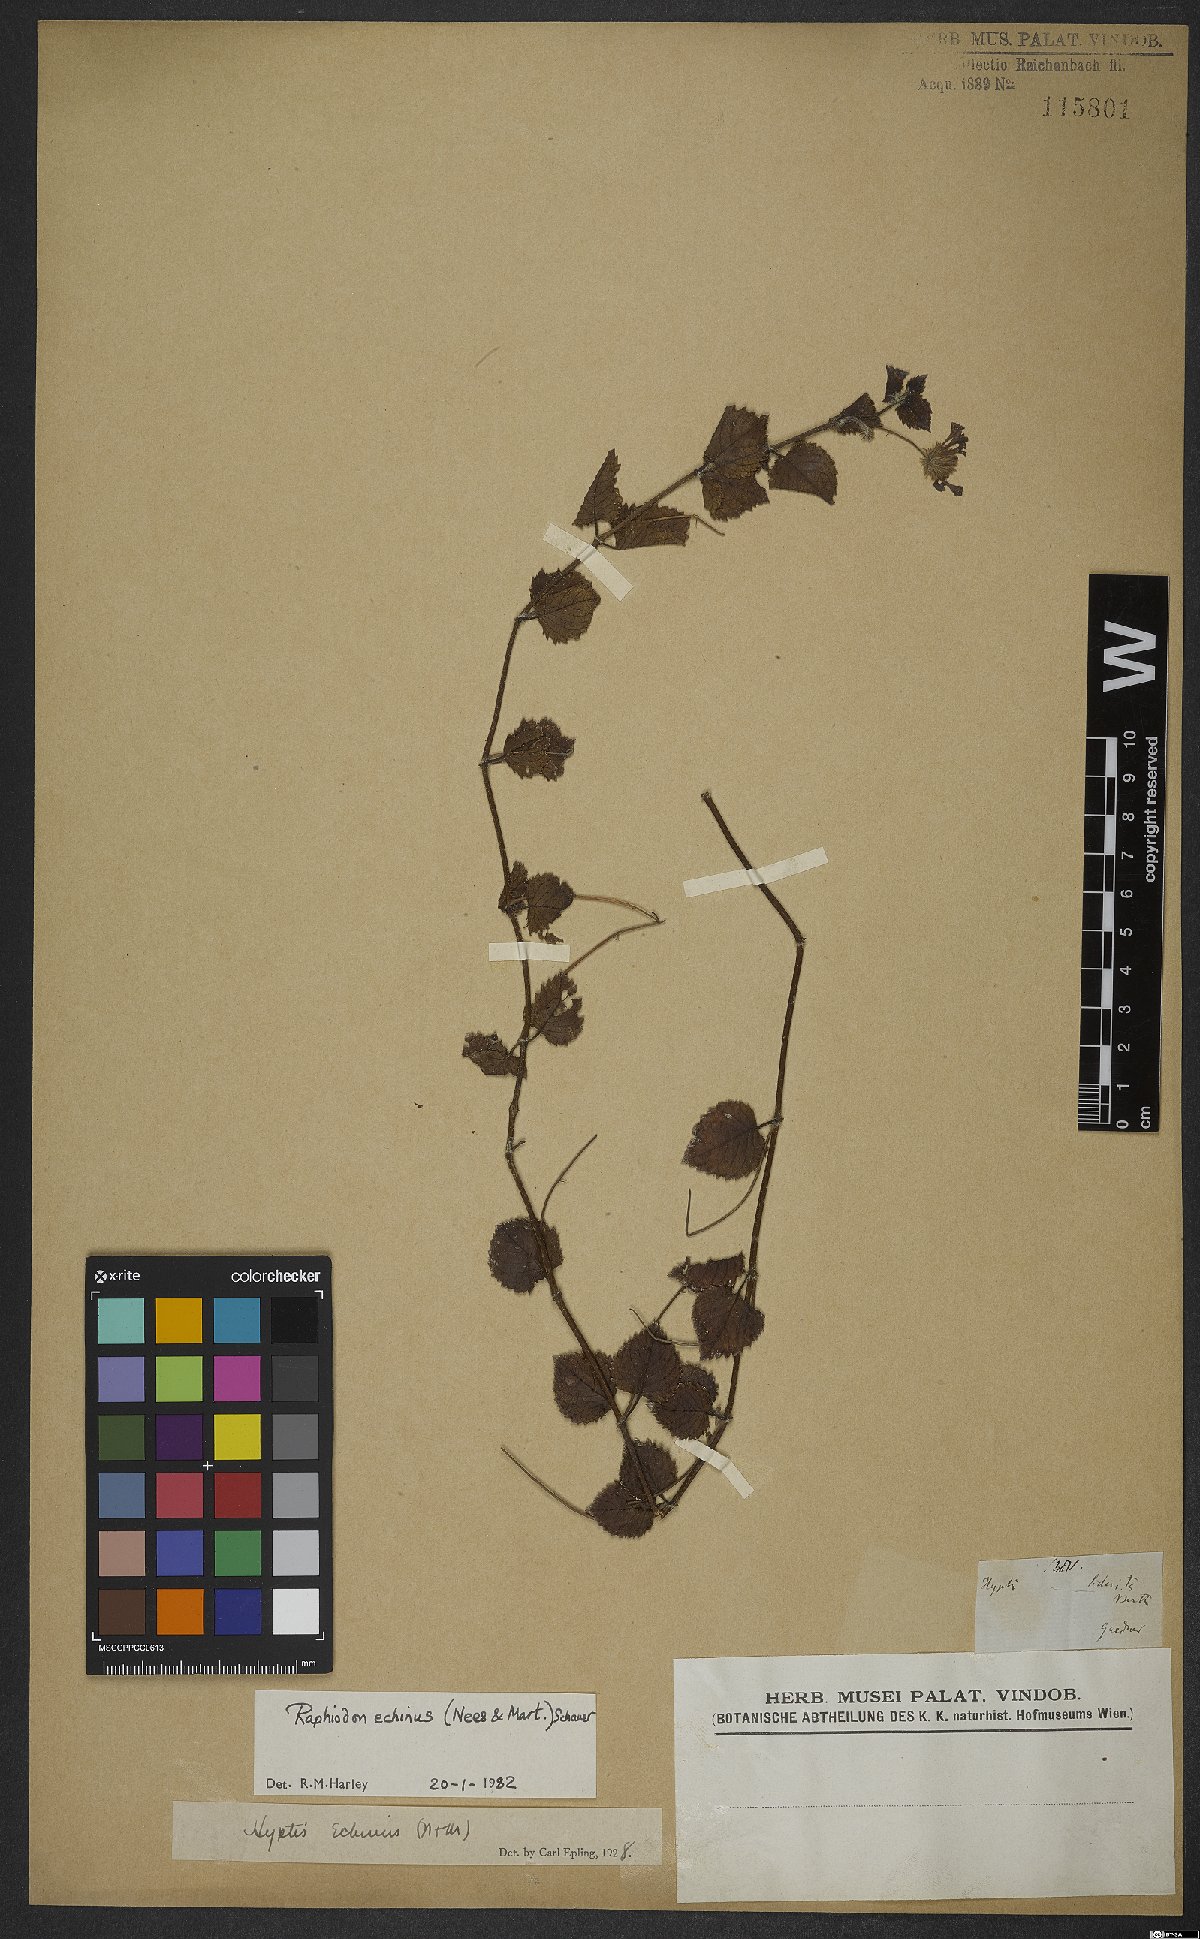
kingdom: Plantae
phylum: Tracheophyta
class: Magnoliopsida
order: Lamiales
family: Lamiaceae
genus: Rhaphiodon
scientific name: Rhaphiodon echinus
